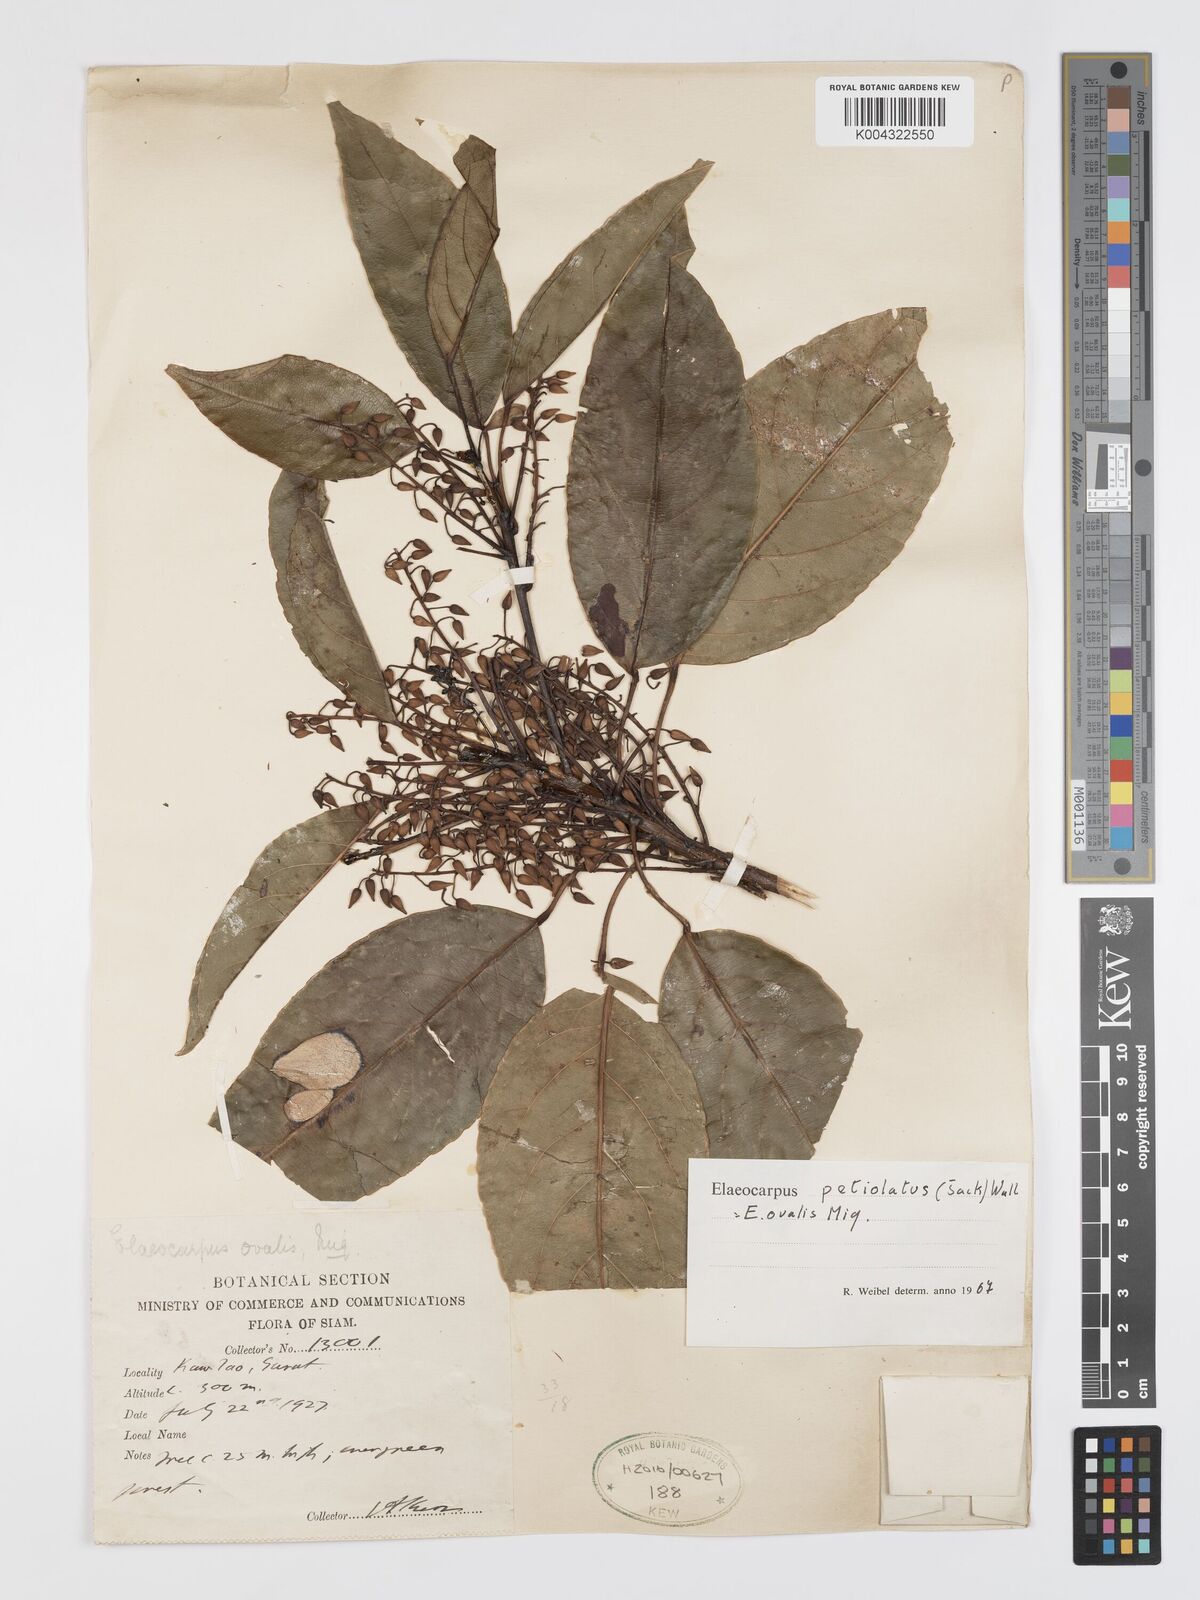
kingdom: Plantae
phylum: Tracheophyta
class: Magnoliopsida
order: Oxalidales
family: Elaeocarpaceae
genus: Elaeocarpus
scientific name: Elaeocarpus petiolatus
